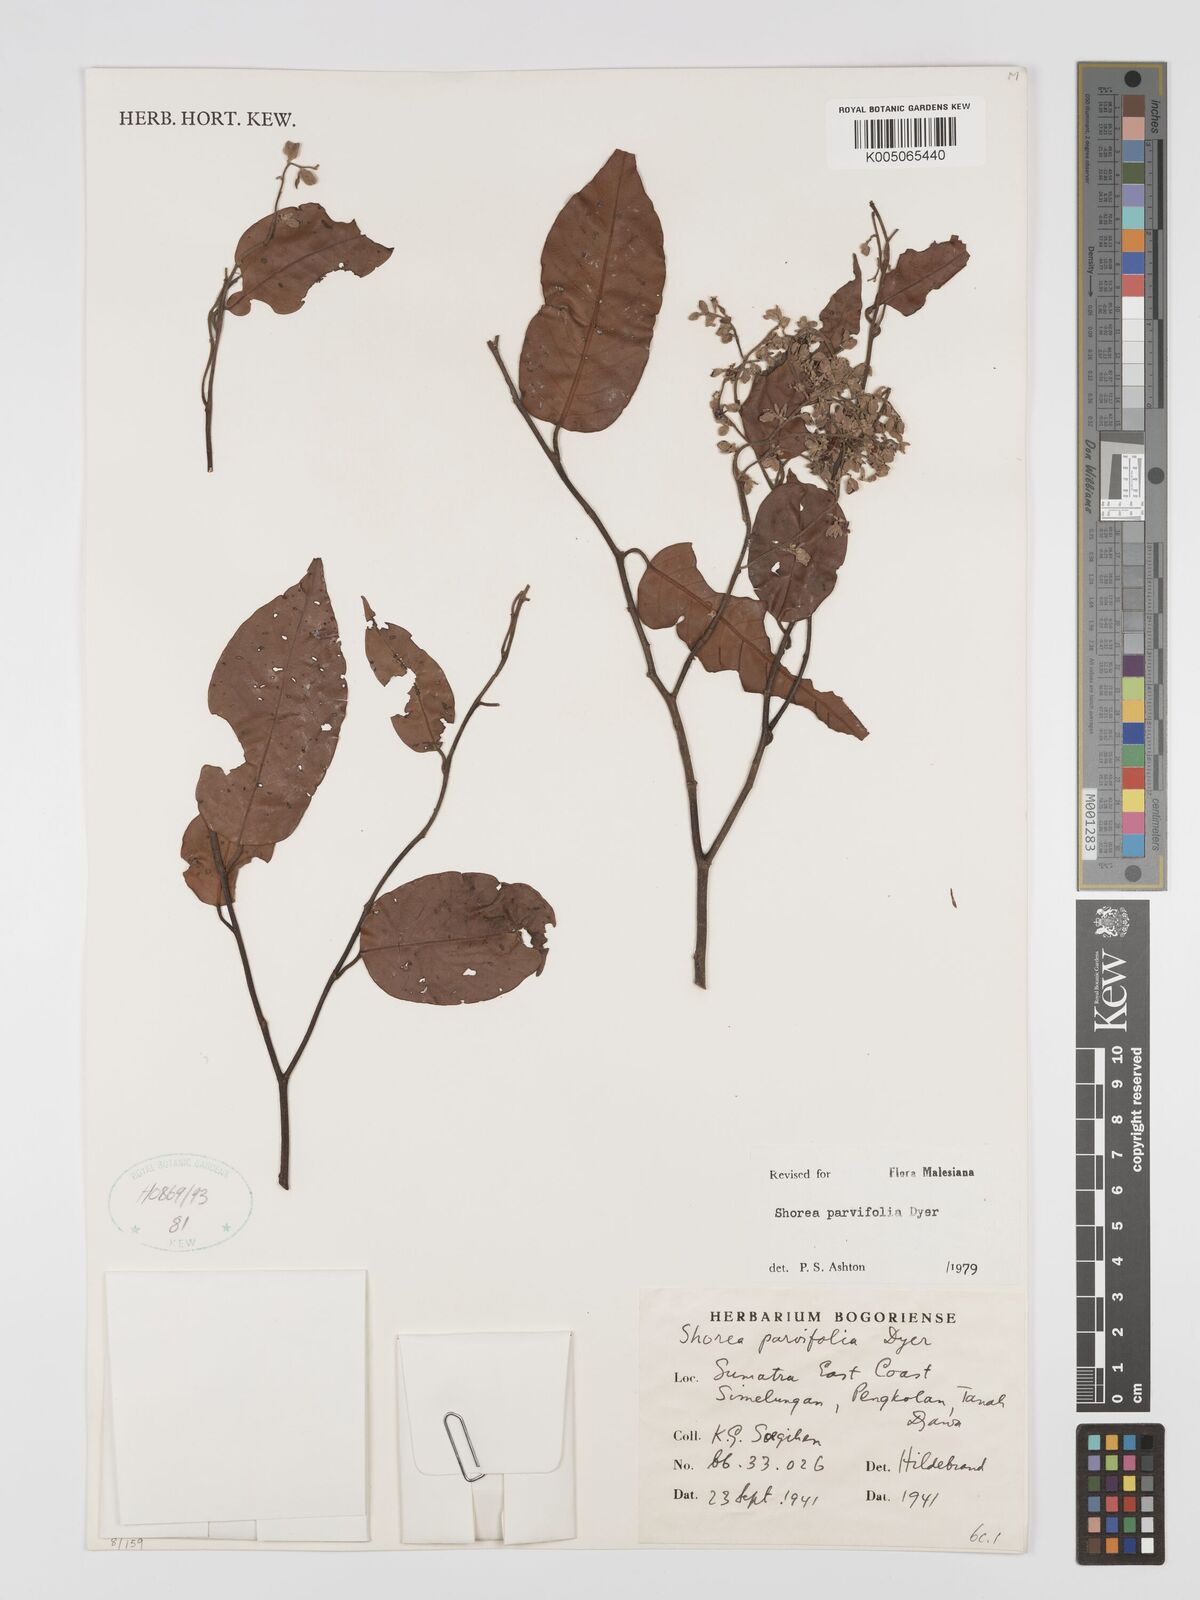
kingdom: Plantae
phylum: Tracheophyta
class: Magnoliopsida
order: Malvales
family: Dipterocarpaceae
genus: Shorea
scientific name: Shorea parvifolia
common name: Light red meranti
